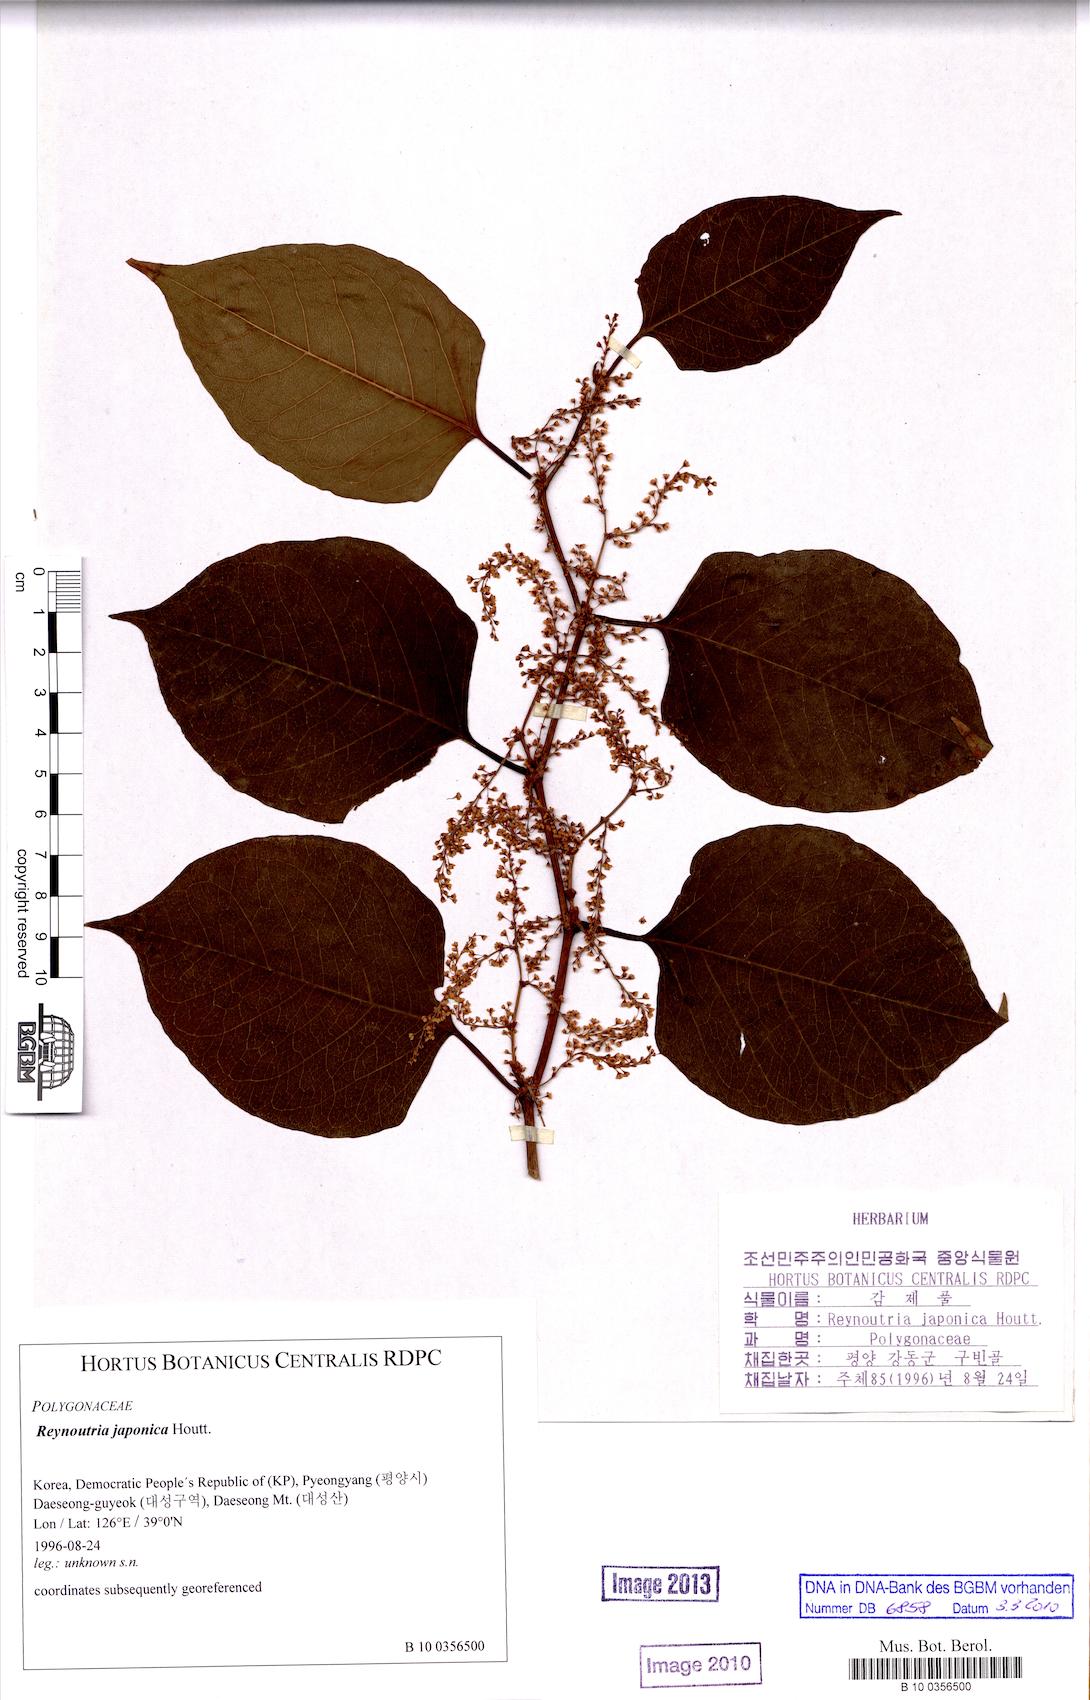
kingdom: Plantae
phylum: Tracheophyta
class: Magnoliopsida
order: Caryophyllales
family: Polygonaceae
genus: Reynoutria
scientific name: Reynoutria japonica
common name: Japanese knotweed
